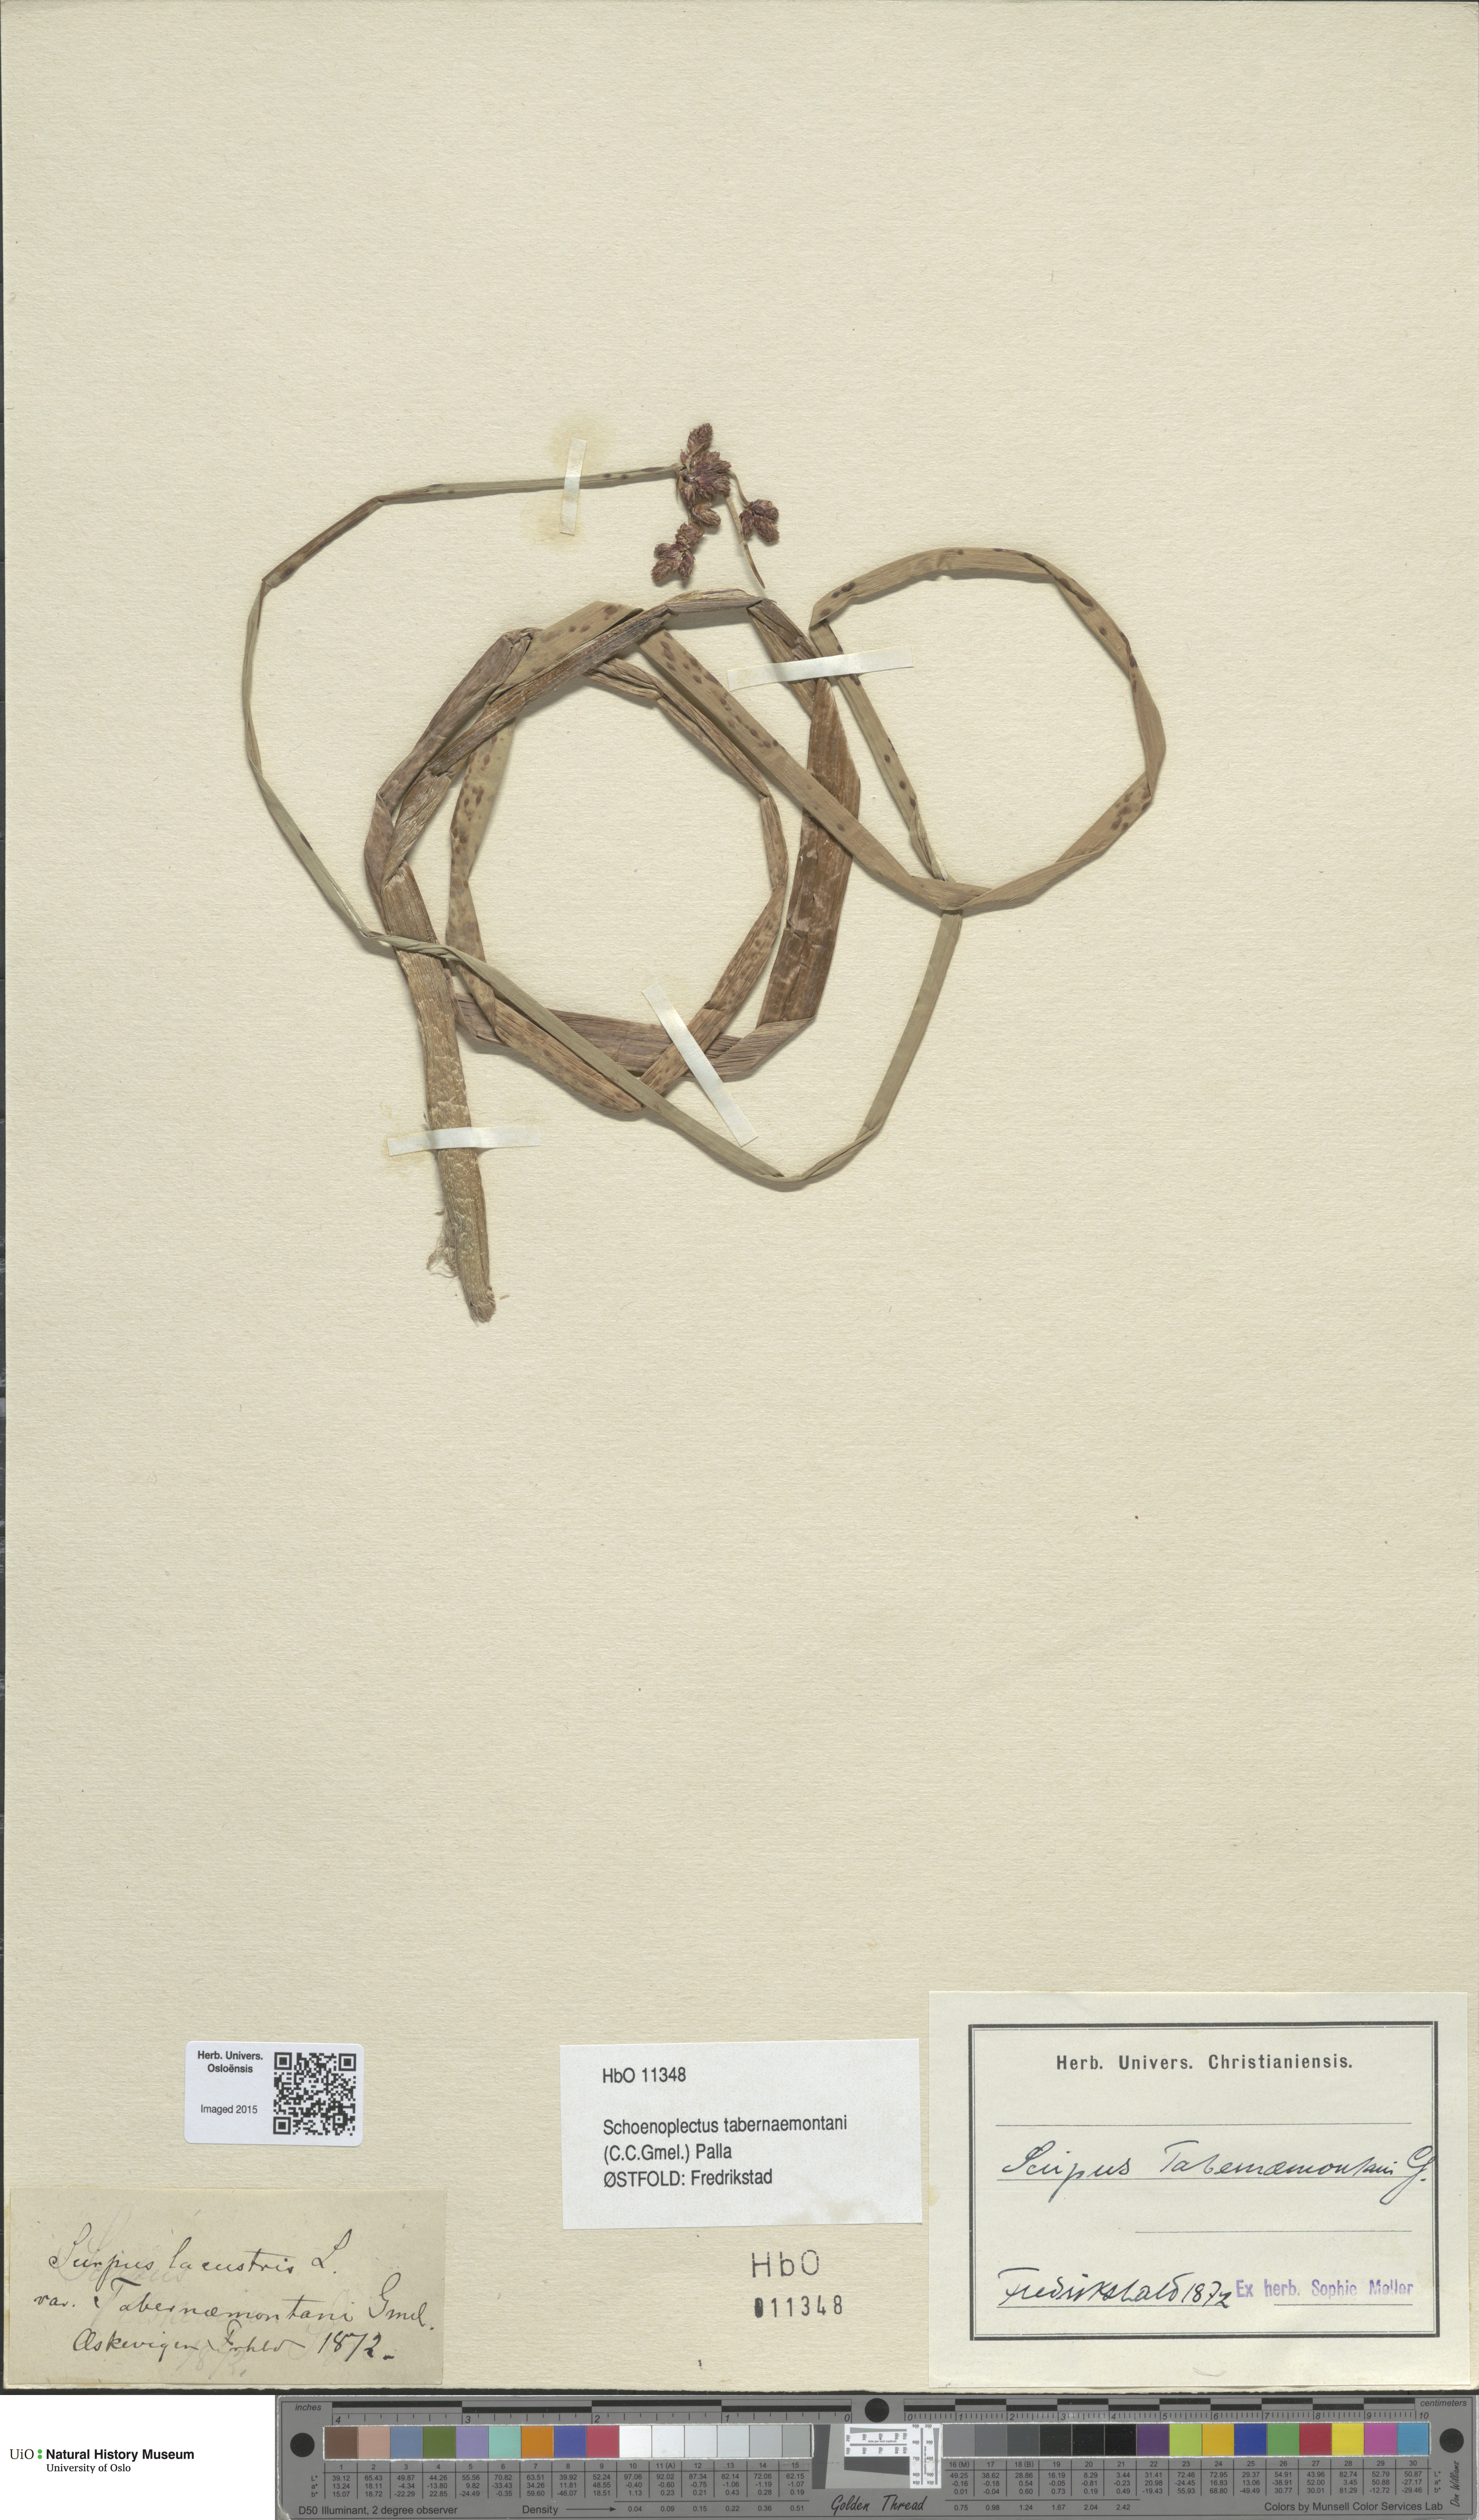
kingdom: Plantae
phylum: Tracheophyta
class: Liliopsida
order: Poales
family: Cyperaceae
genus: Schoenoplectus
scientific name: Schoenoplectus tabernaemontani
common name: Grey club-rush
